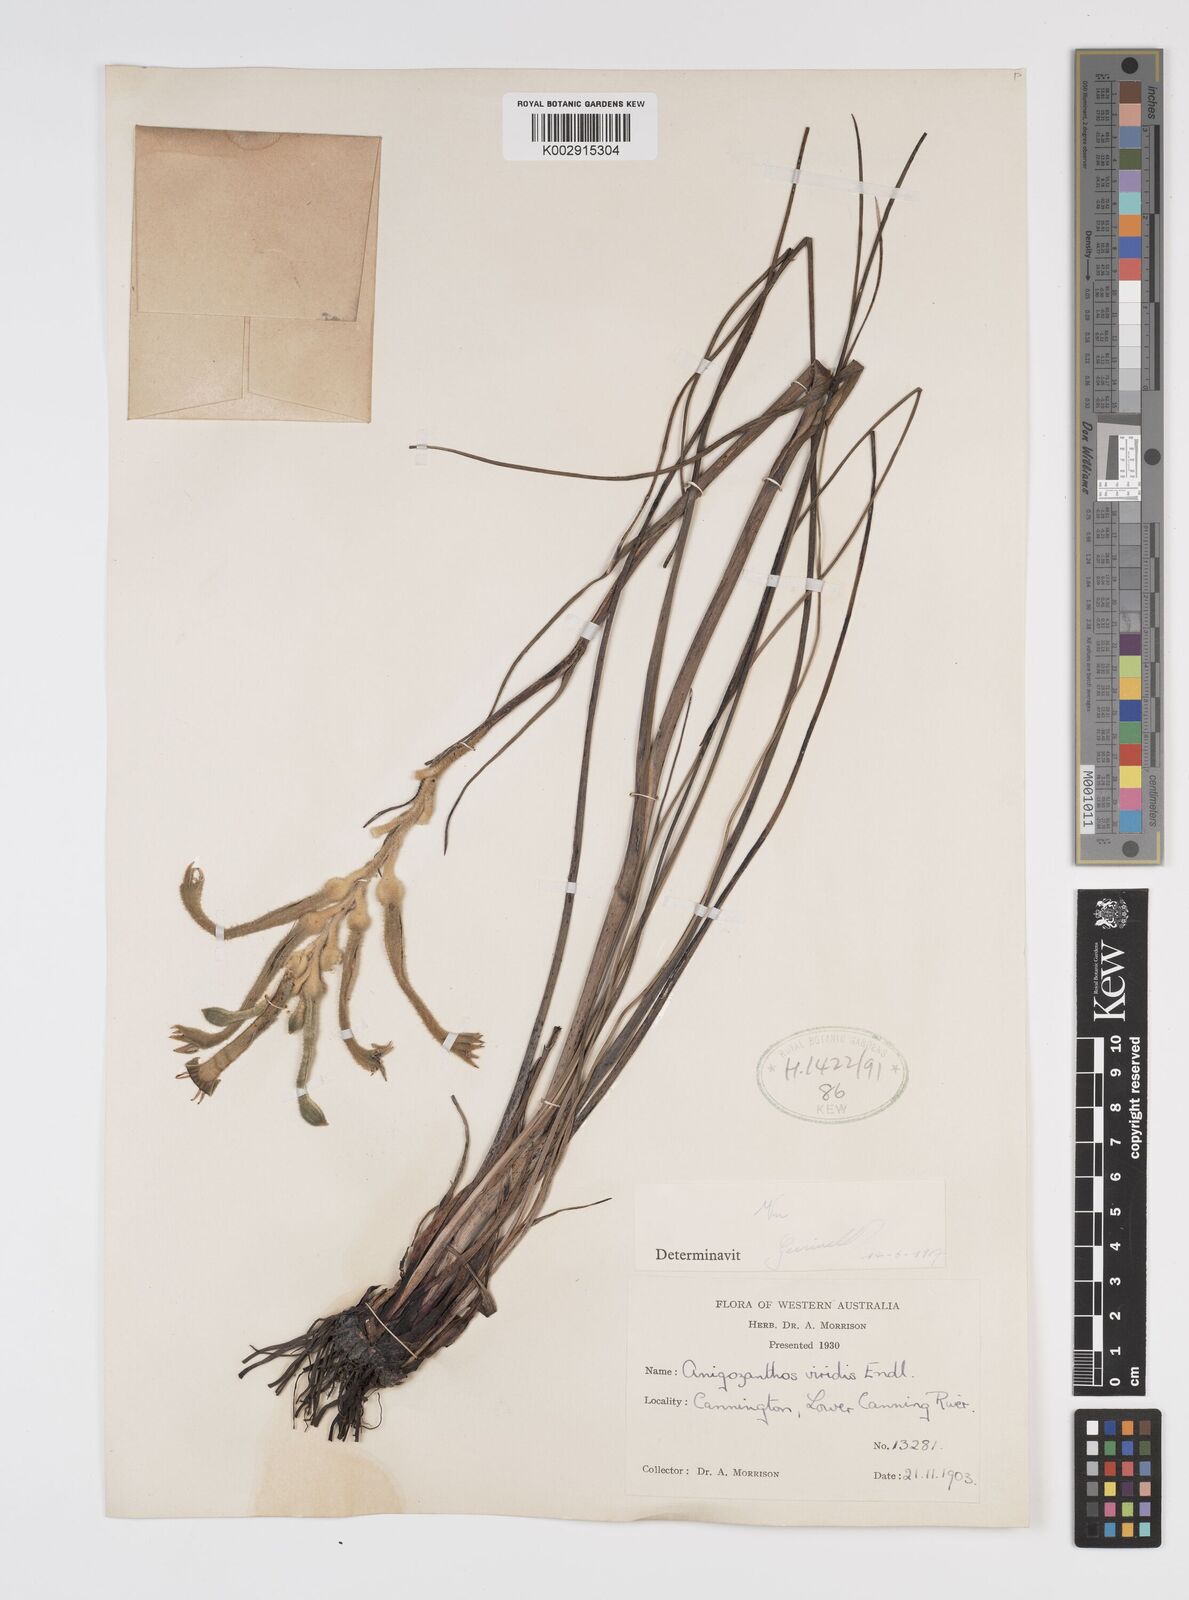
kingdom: Plantae
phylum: Tracheophyta
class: Liliopsida
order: Commelinales
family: Haemodoraceae
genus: Anigozanthos
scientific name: Anigozanthos viridis
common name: Green kangaroo-paw
